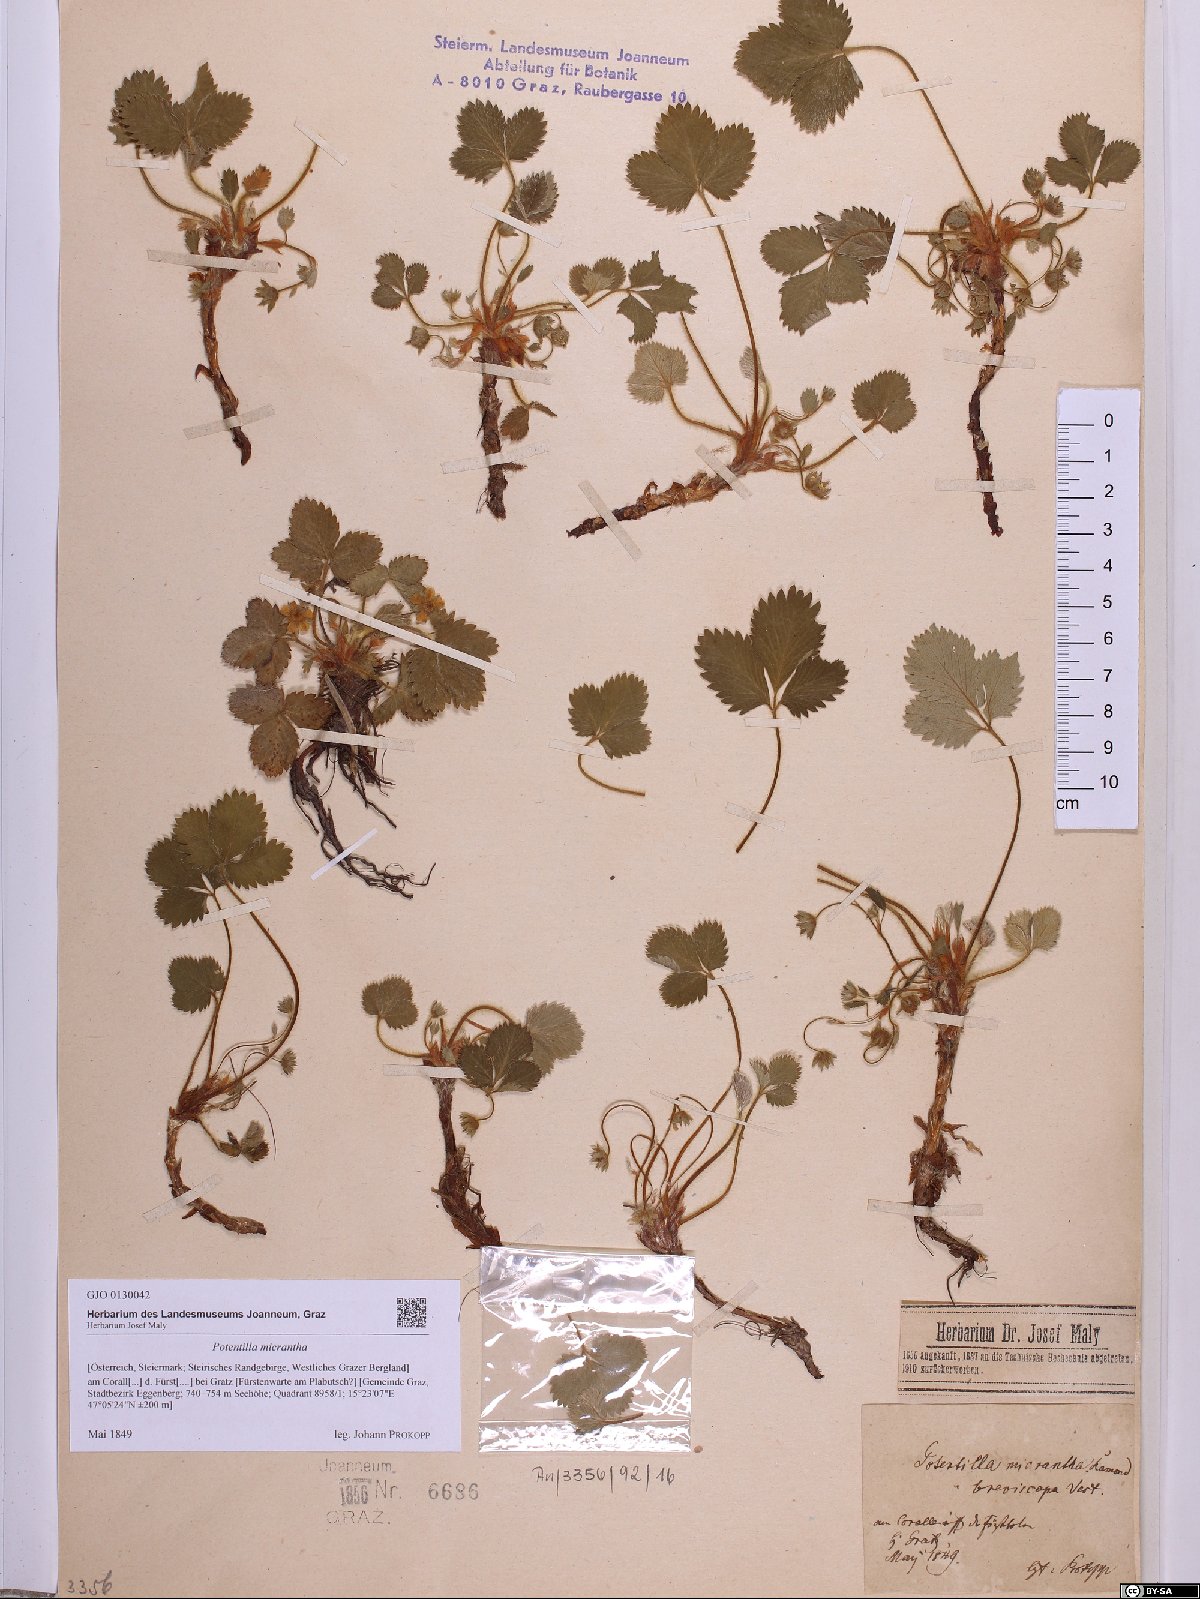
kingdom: Plantae
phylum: Tracheophyta
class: Magnoliopsida
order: Rosales
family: Rosaceae
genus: Potentilla
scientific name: Potentilla micrantha
